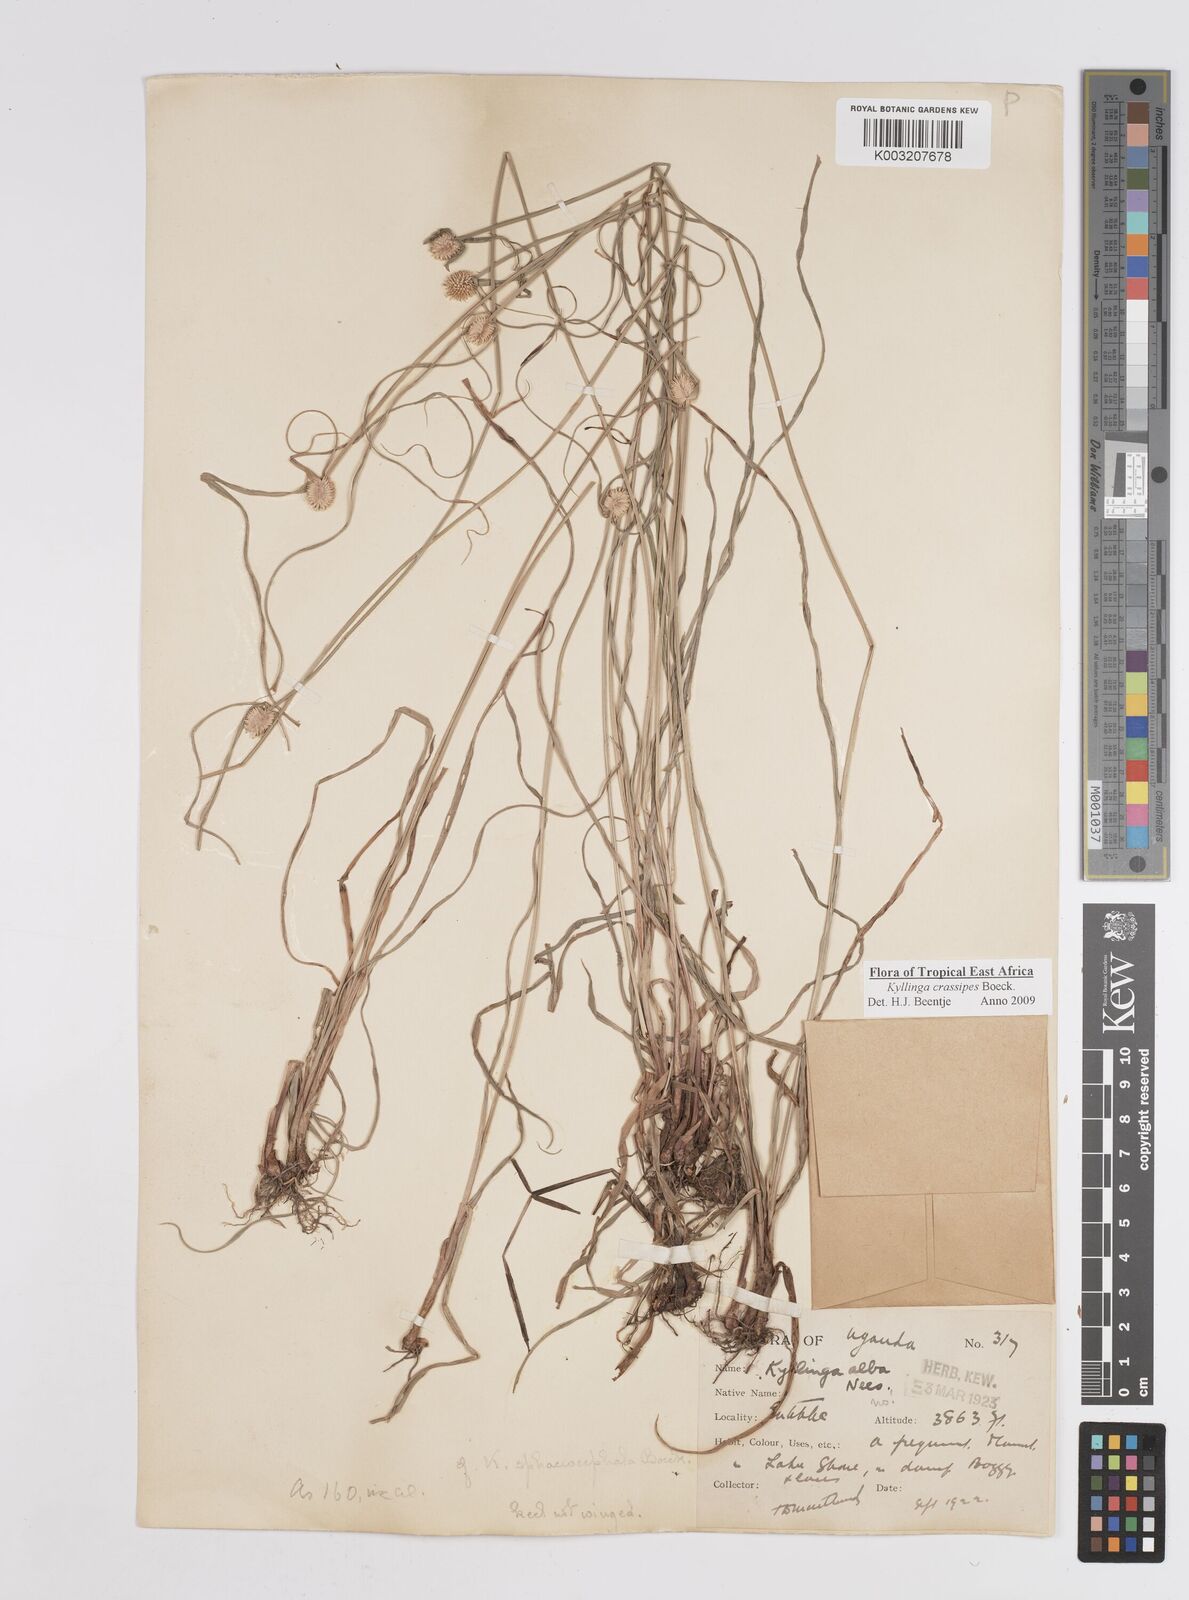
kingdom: Plantae
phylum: Tracheophyta
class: Liliopsida
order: Poales
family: Cyperaceae
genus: Cyperus
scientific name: Cyperus crassipes
